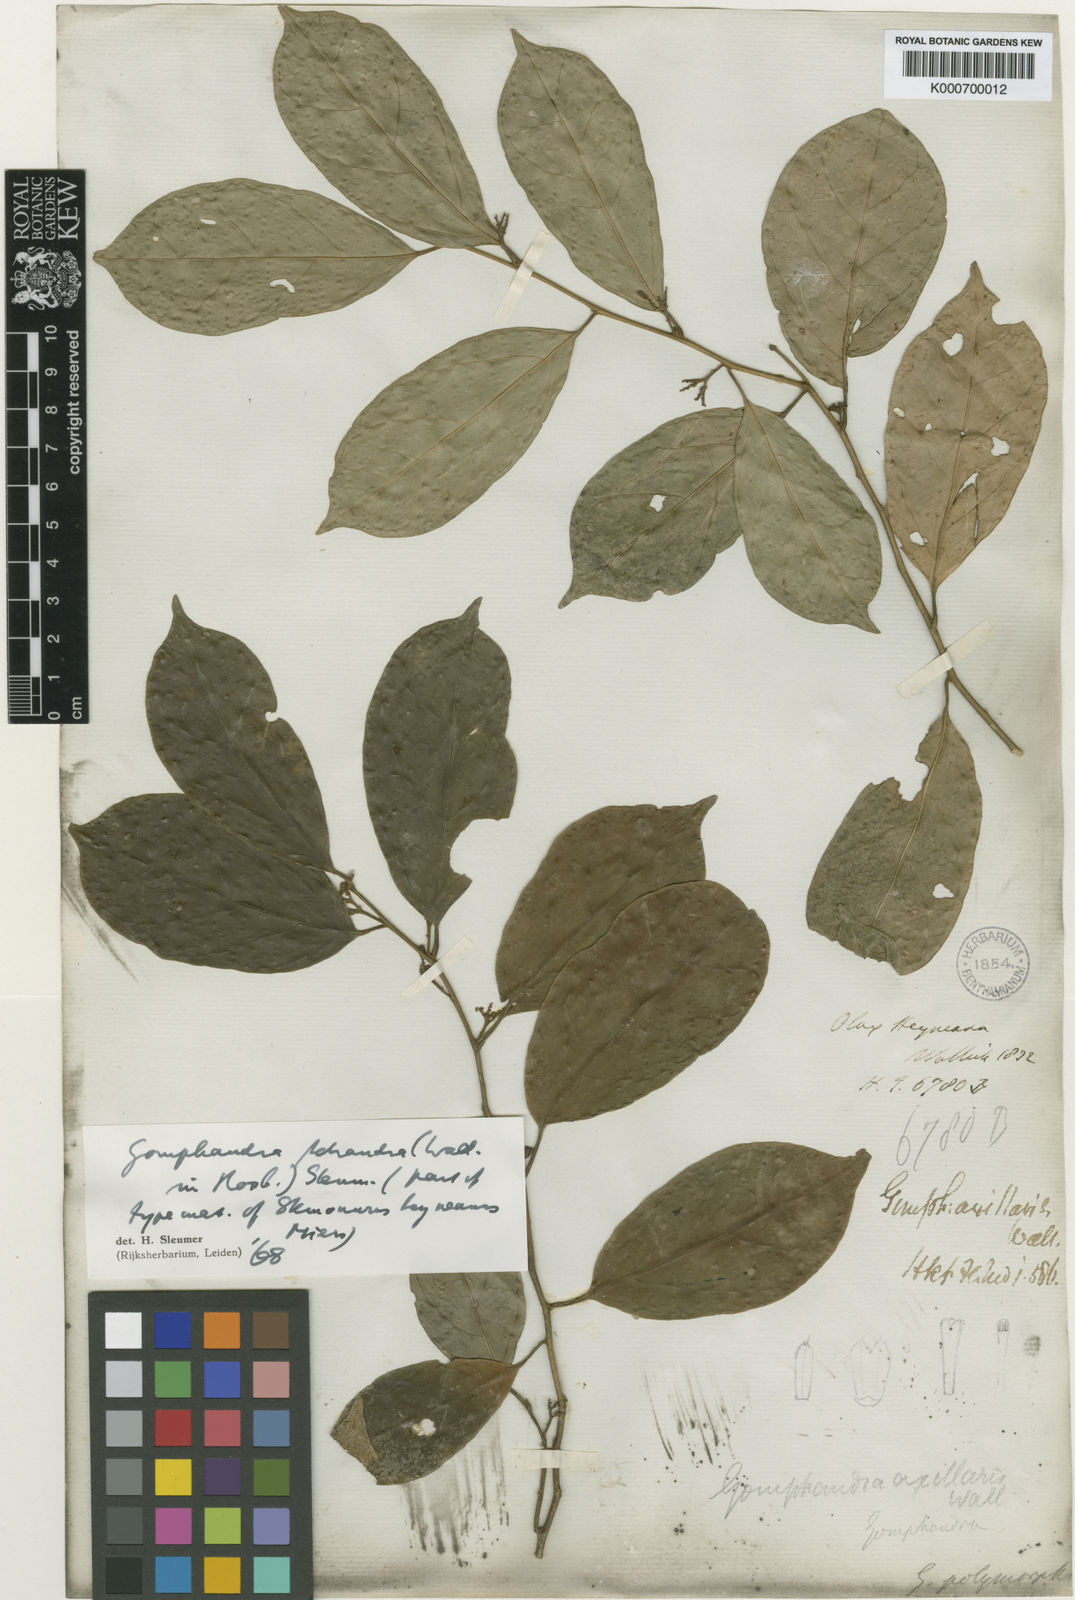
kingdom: Plantae
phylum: Tracheophyta
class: Magnoliopsida
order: Cardiopteridales
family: Stemonuraceae
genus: Gomphandra
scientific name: Gomphandra tetrandra
